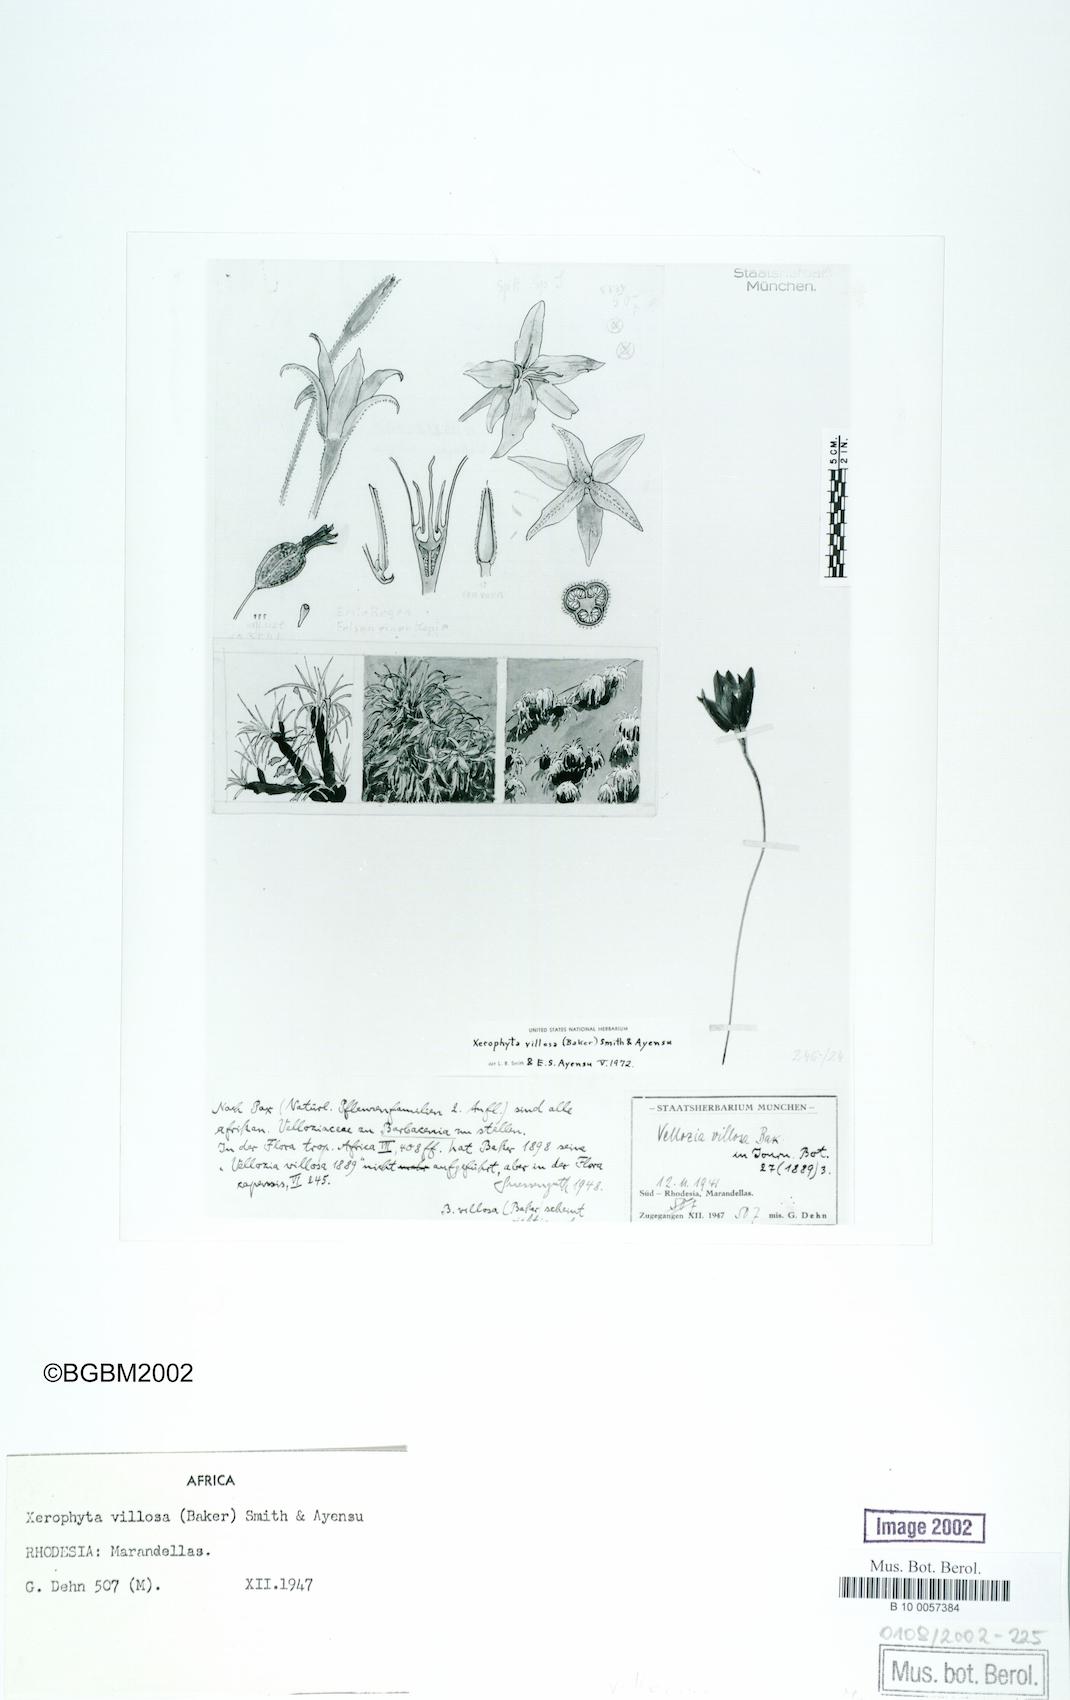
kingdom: Plantae
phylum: Tracheophyta
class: Liliopsida
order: Pandanales
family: Velloziaceae
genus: Xerophyta
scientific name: Xerophyta villosa
